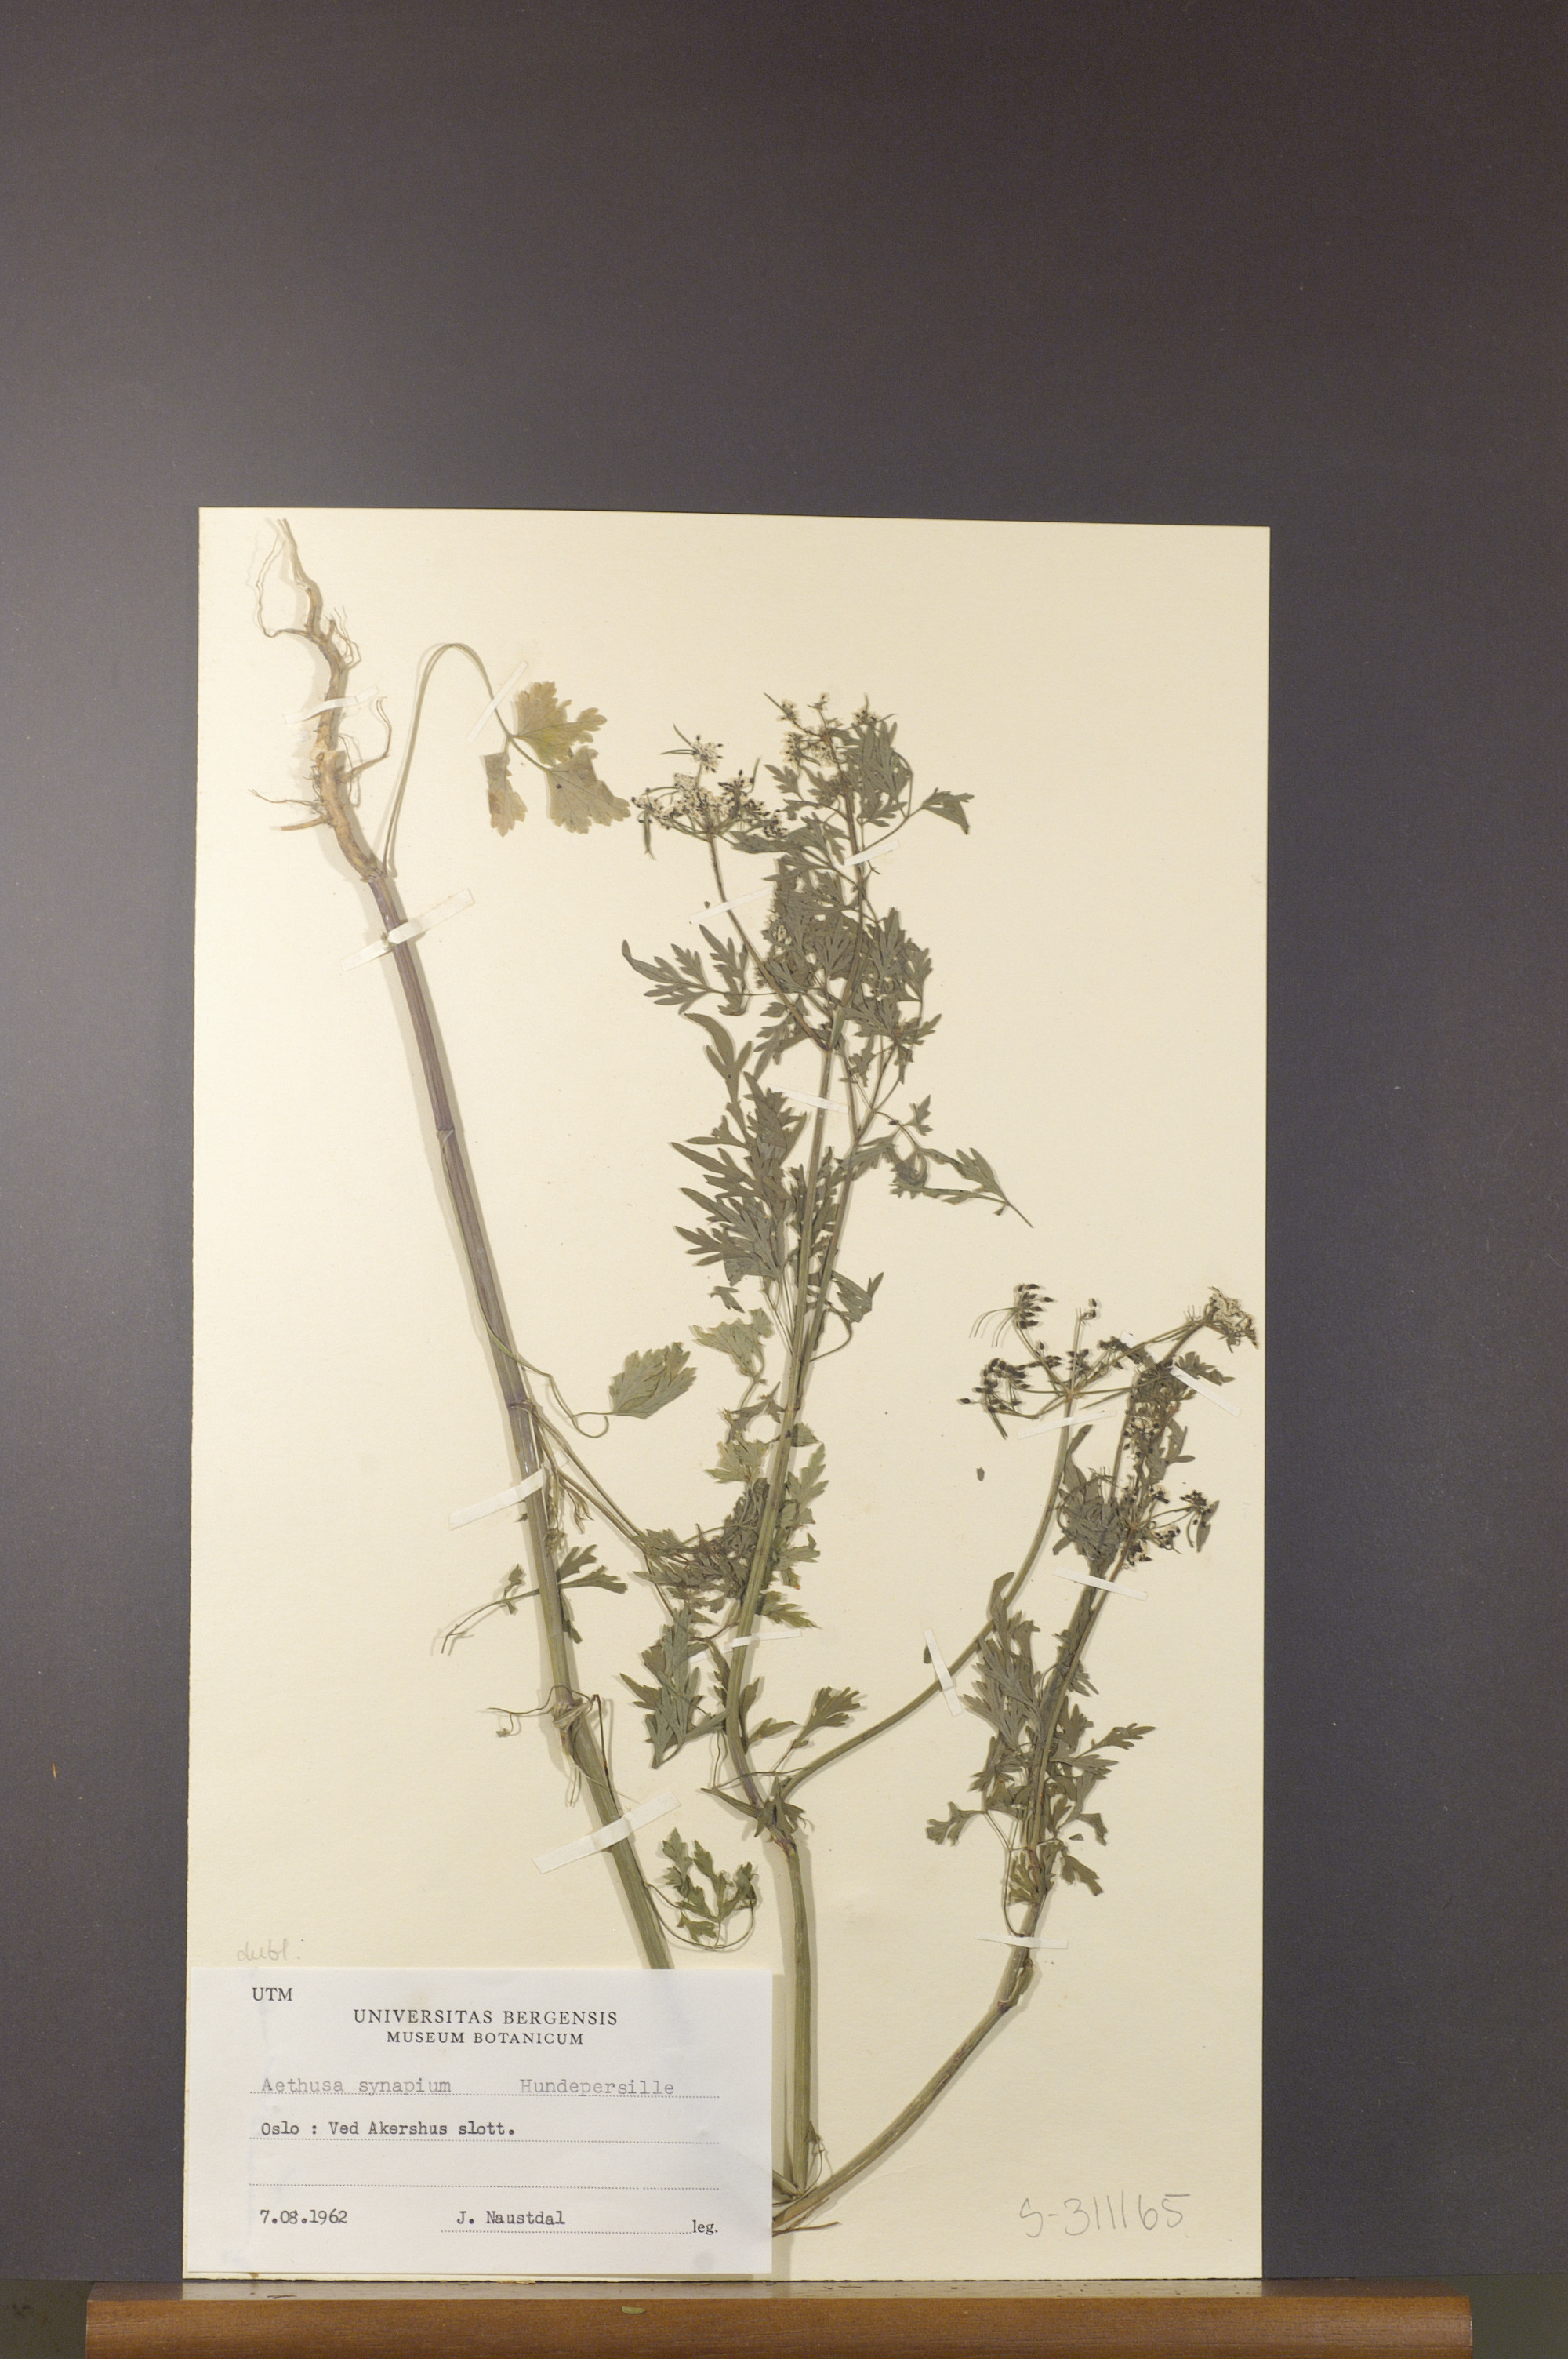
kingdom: Plantae
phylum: Tracheophyta
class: Magnoliopsida
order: Apiales
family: Apiaceae
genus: Aethusa
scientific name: Aethusa cynapium
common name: Fool's parsley
